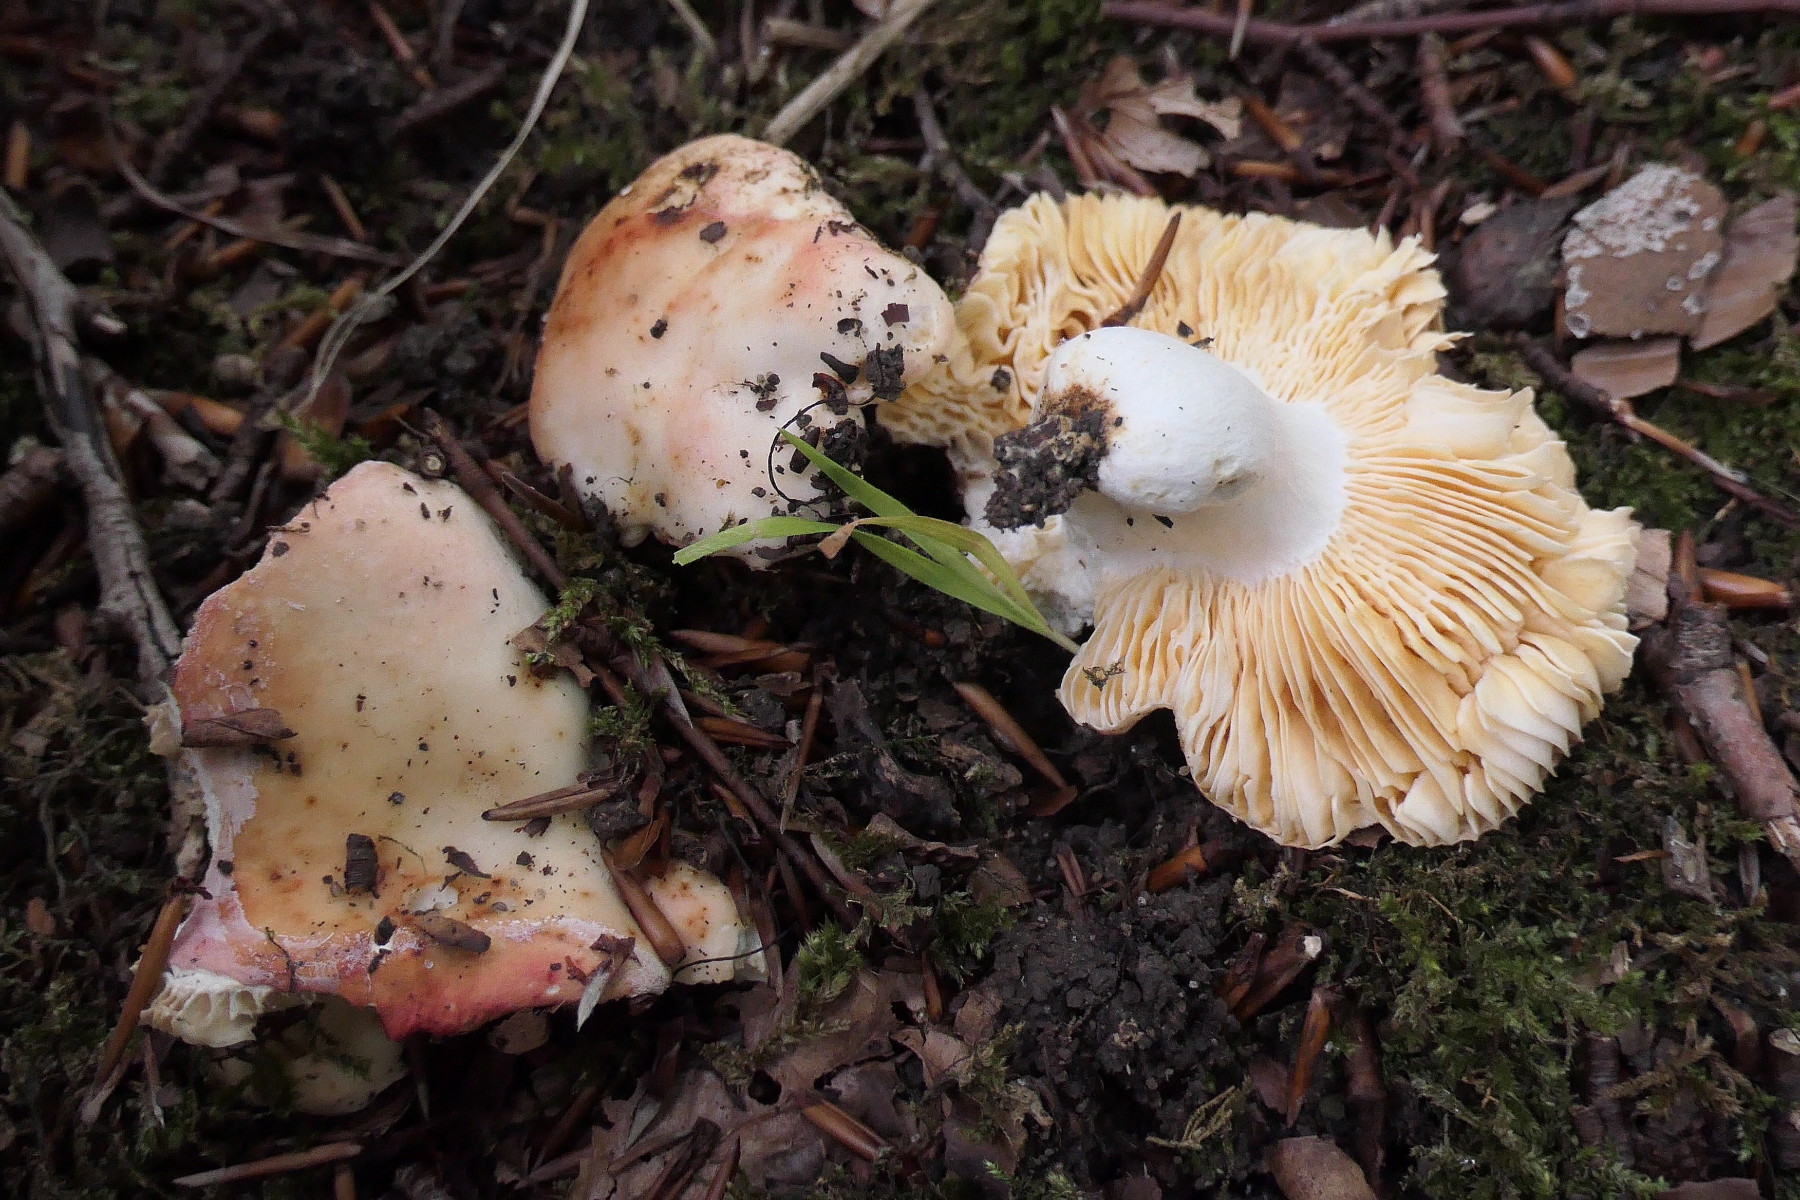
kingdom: Fungi
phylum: Basidiomycota
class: Agaricomycetes
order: Russulales
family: Russulaceae
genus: Russula
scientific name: Russula maculata
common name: plettet skørhat
